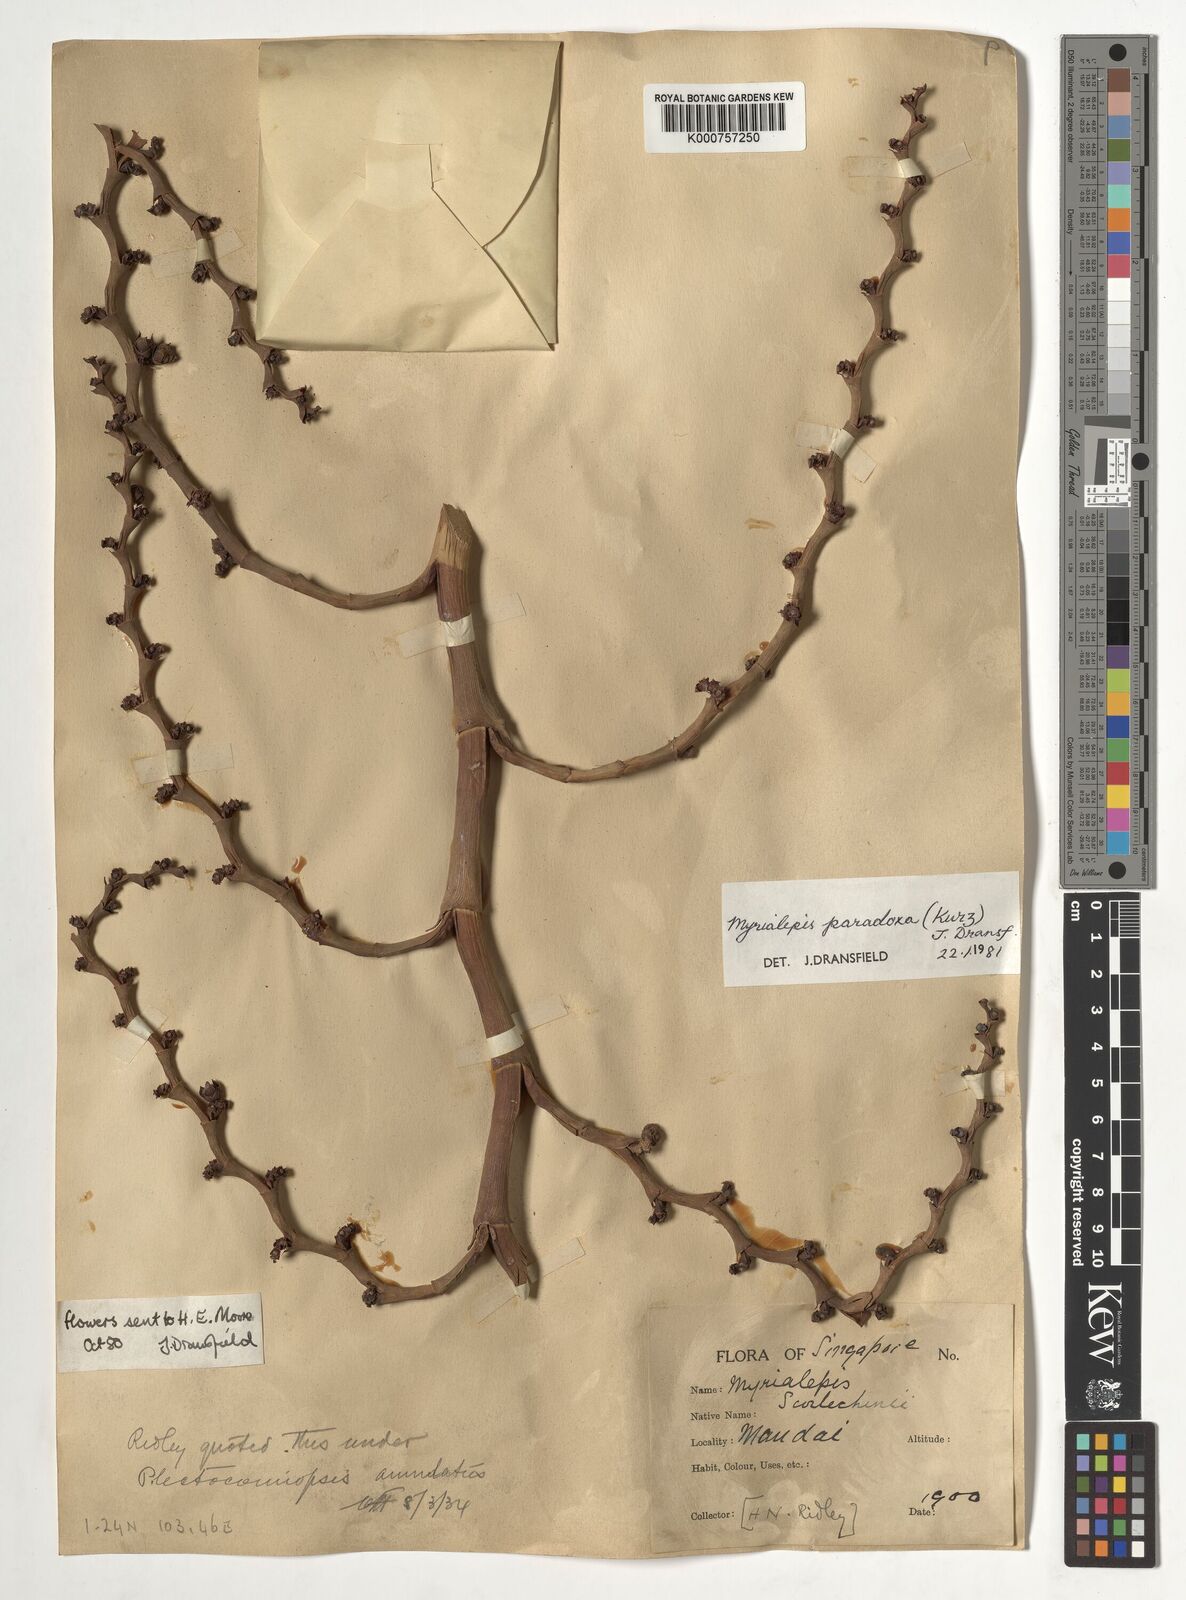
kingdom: Plantae
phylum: Tracheophyta
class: Liliopsida
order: Arecales
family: Arecaceae
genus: Myrialepis
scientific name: Myrialepis paradoxa
